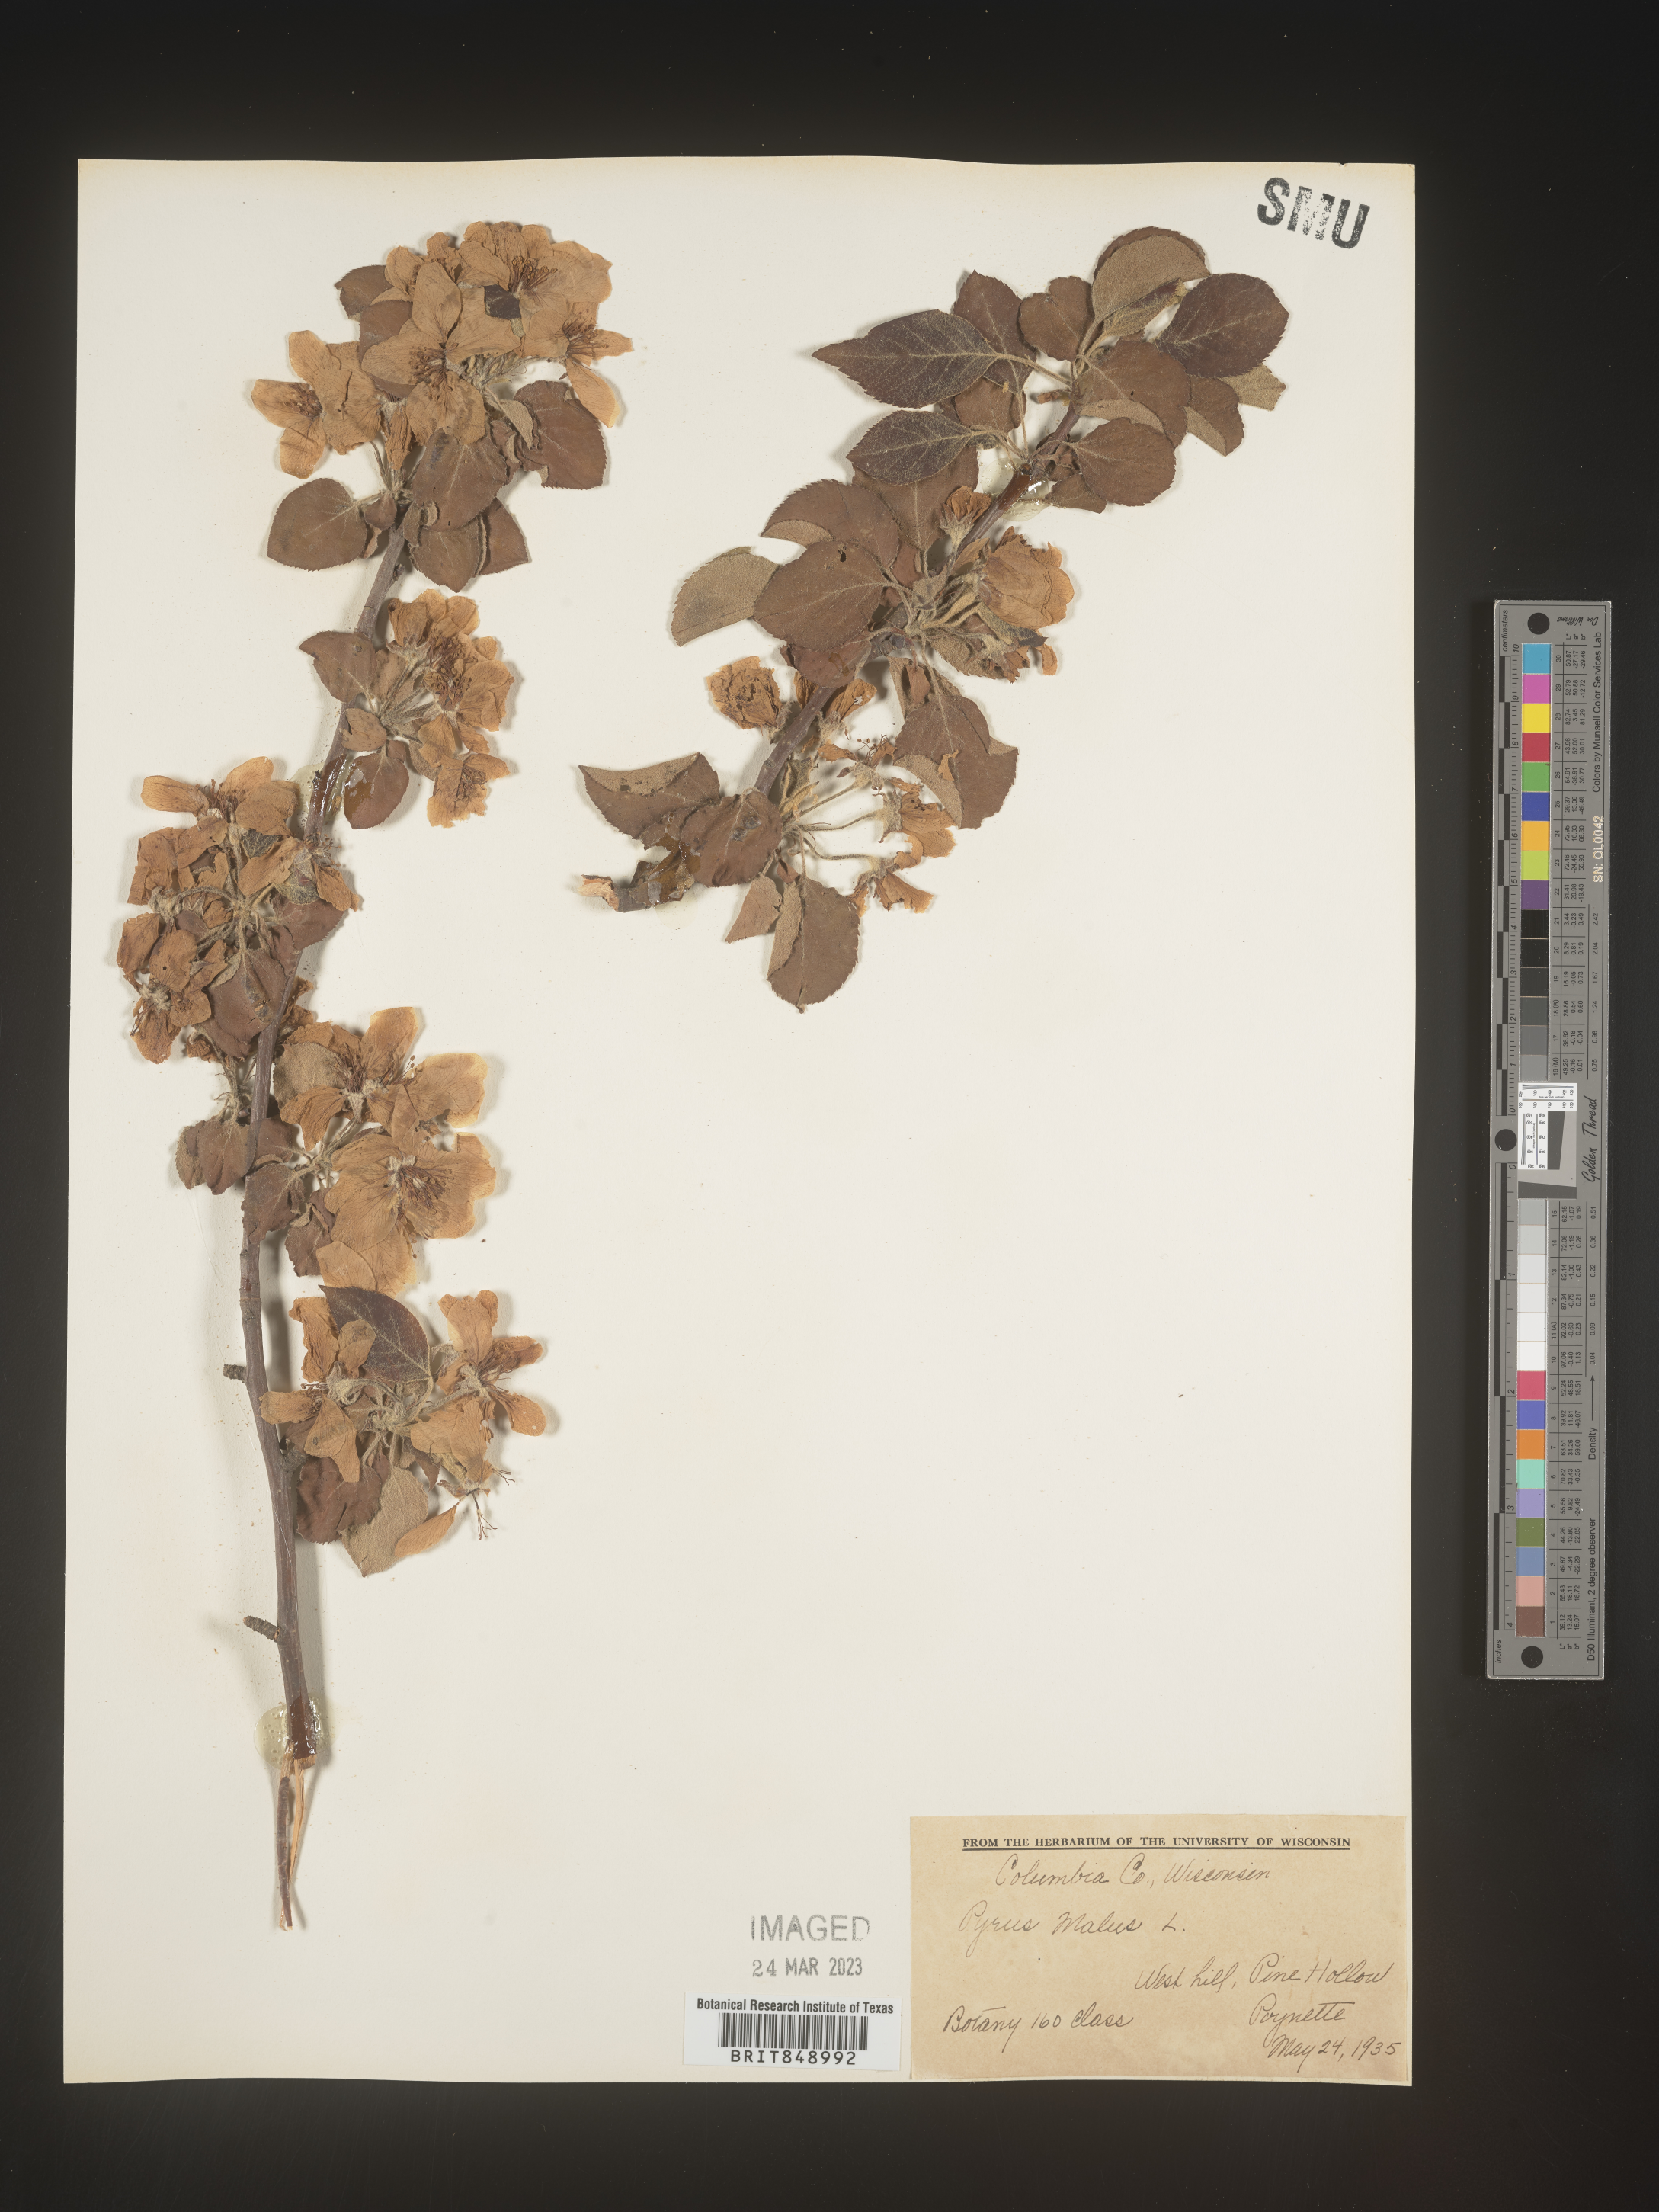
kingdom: Plantae
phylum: Tracheophyta
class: Magnoliopsida
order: Rosales
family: Rosaceae
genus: Malus
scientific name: Malus
